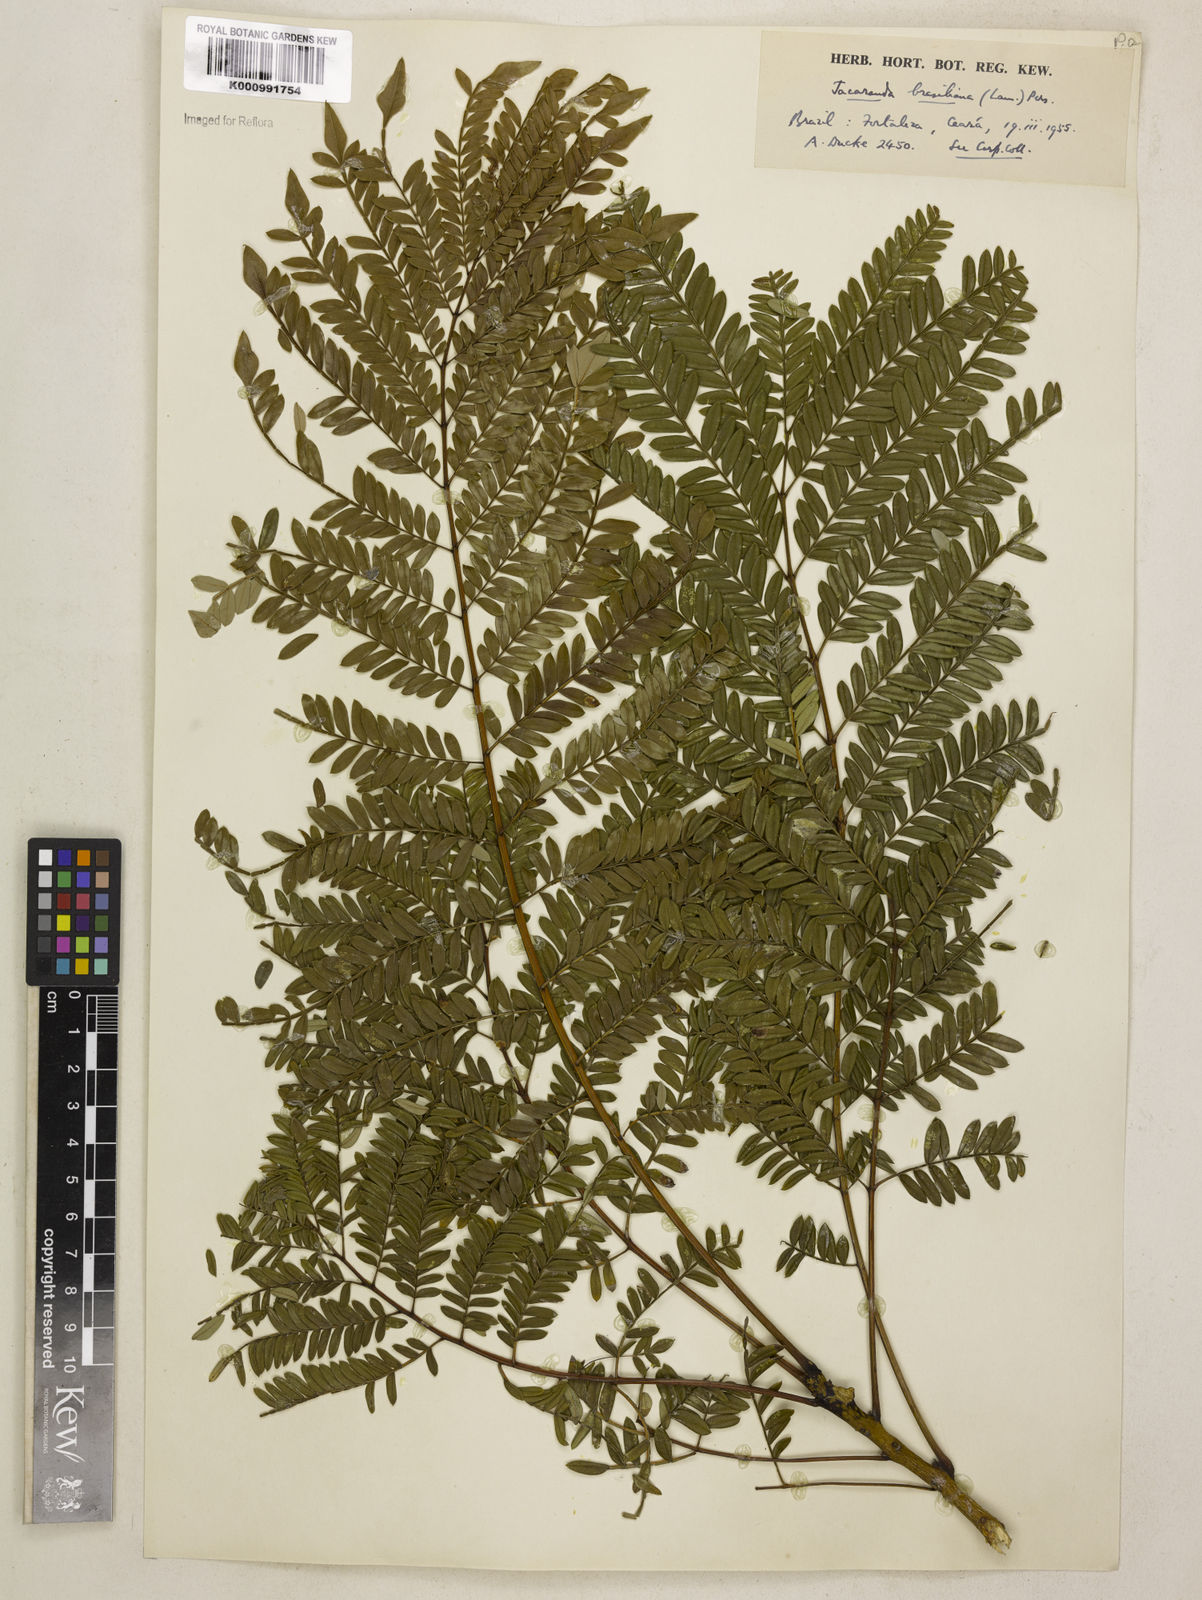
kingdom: Plantae
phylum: Tracheophyta
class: Magnoliopsida
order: Lamiales
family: Bignoniaceae
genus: Jacaranda
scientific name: Jacaranda brasiliana
